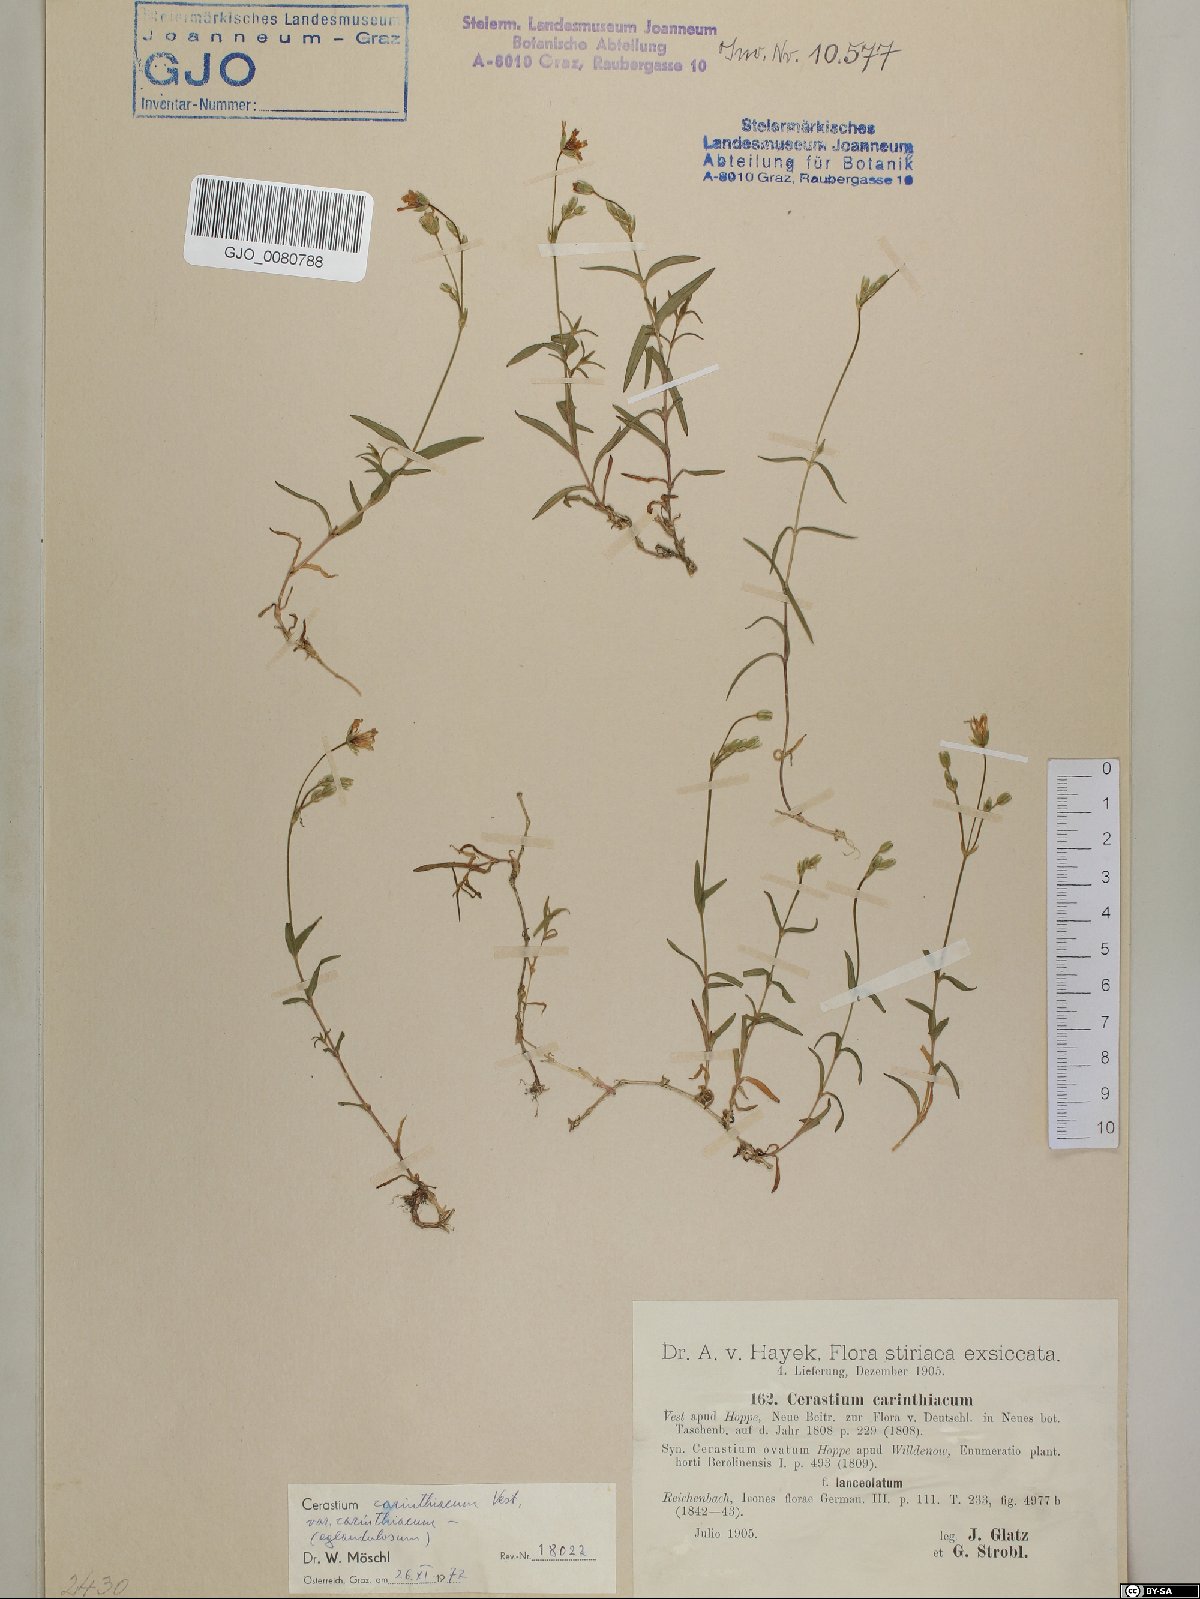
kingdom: Plantae
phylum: Tracheophyta
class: Magnoliopsida
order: Caryophyllales
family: Caryophyllaceae
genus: Cerastium
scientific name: Cerastium carinthiacum
